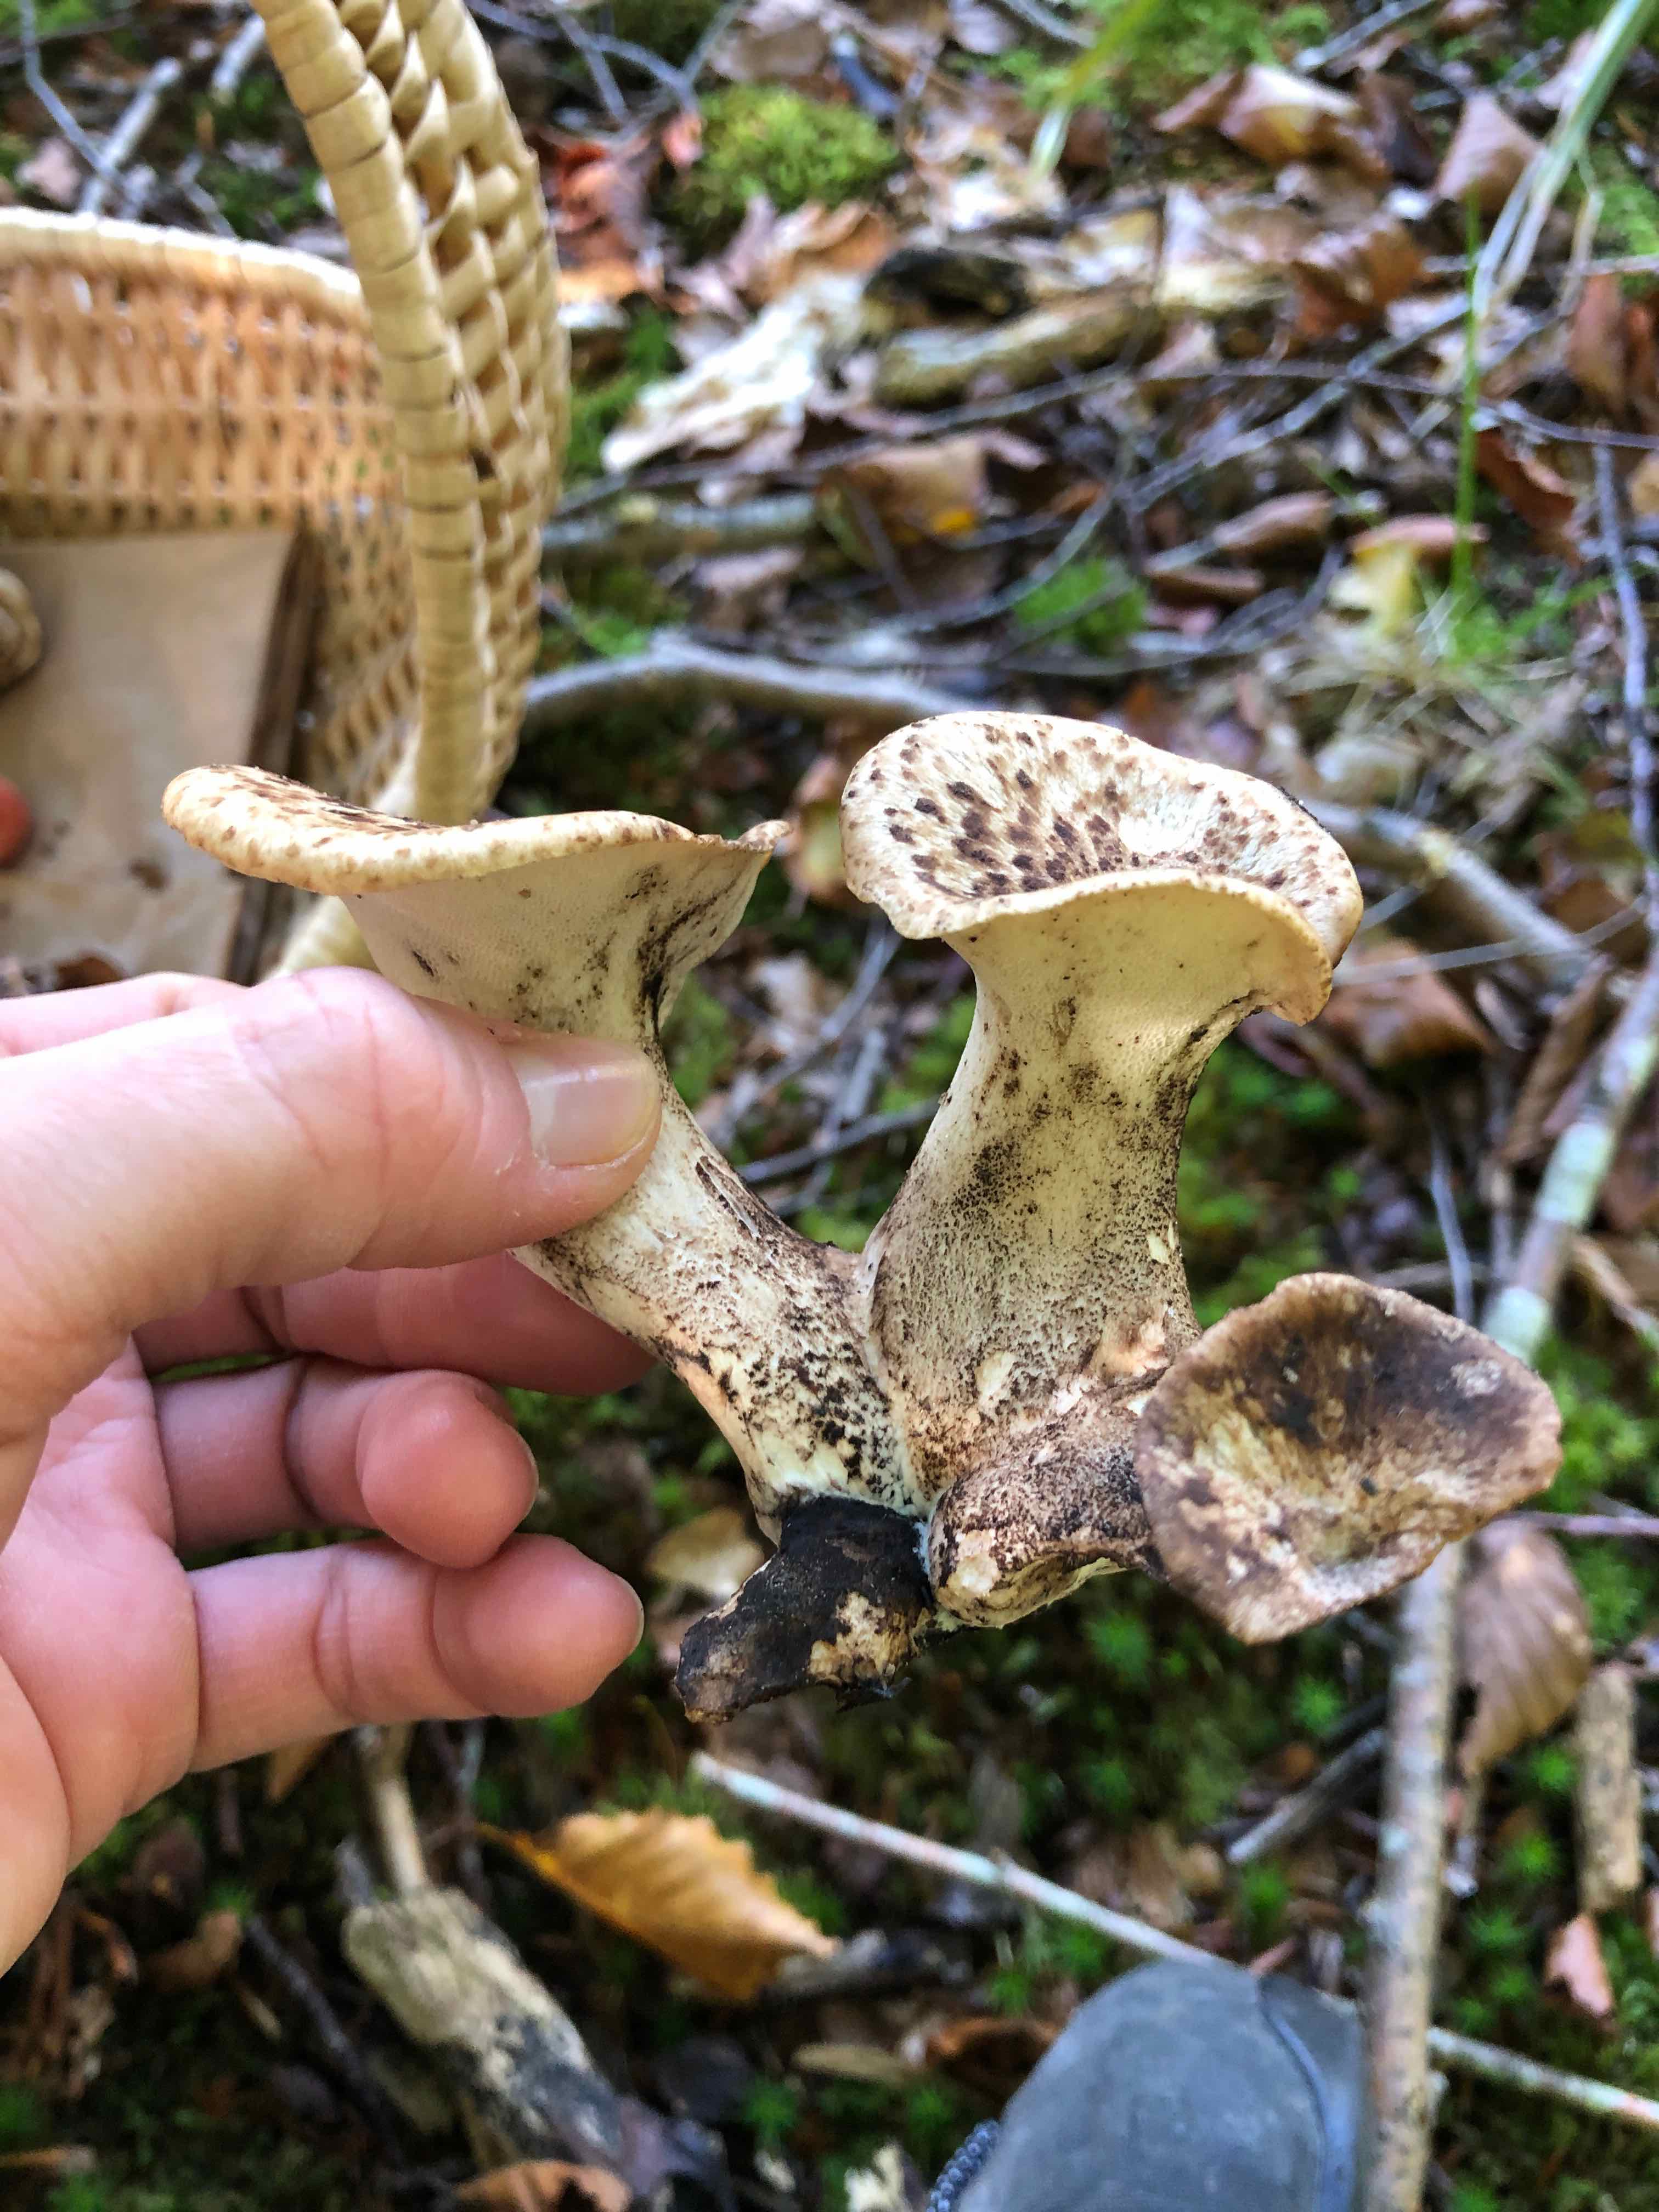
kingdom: Fungi
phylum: Basidiomycota
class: Agaricomycetes
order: Polyporales
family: Polyporaceae
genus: Cerioporus
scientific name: Cerioporus squamosus
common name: skællet stilkporesvamp
